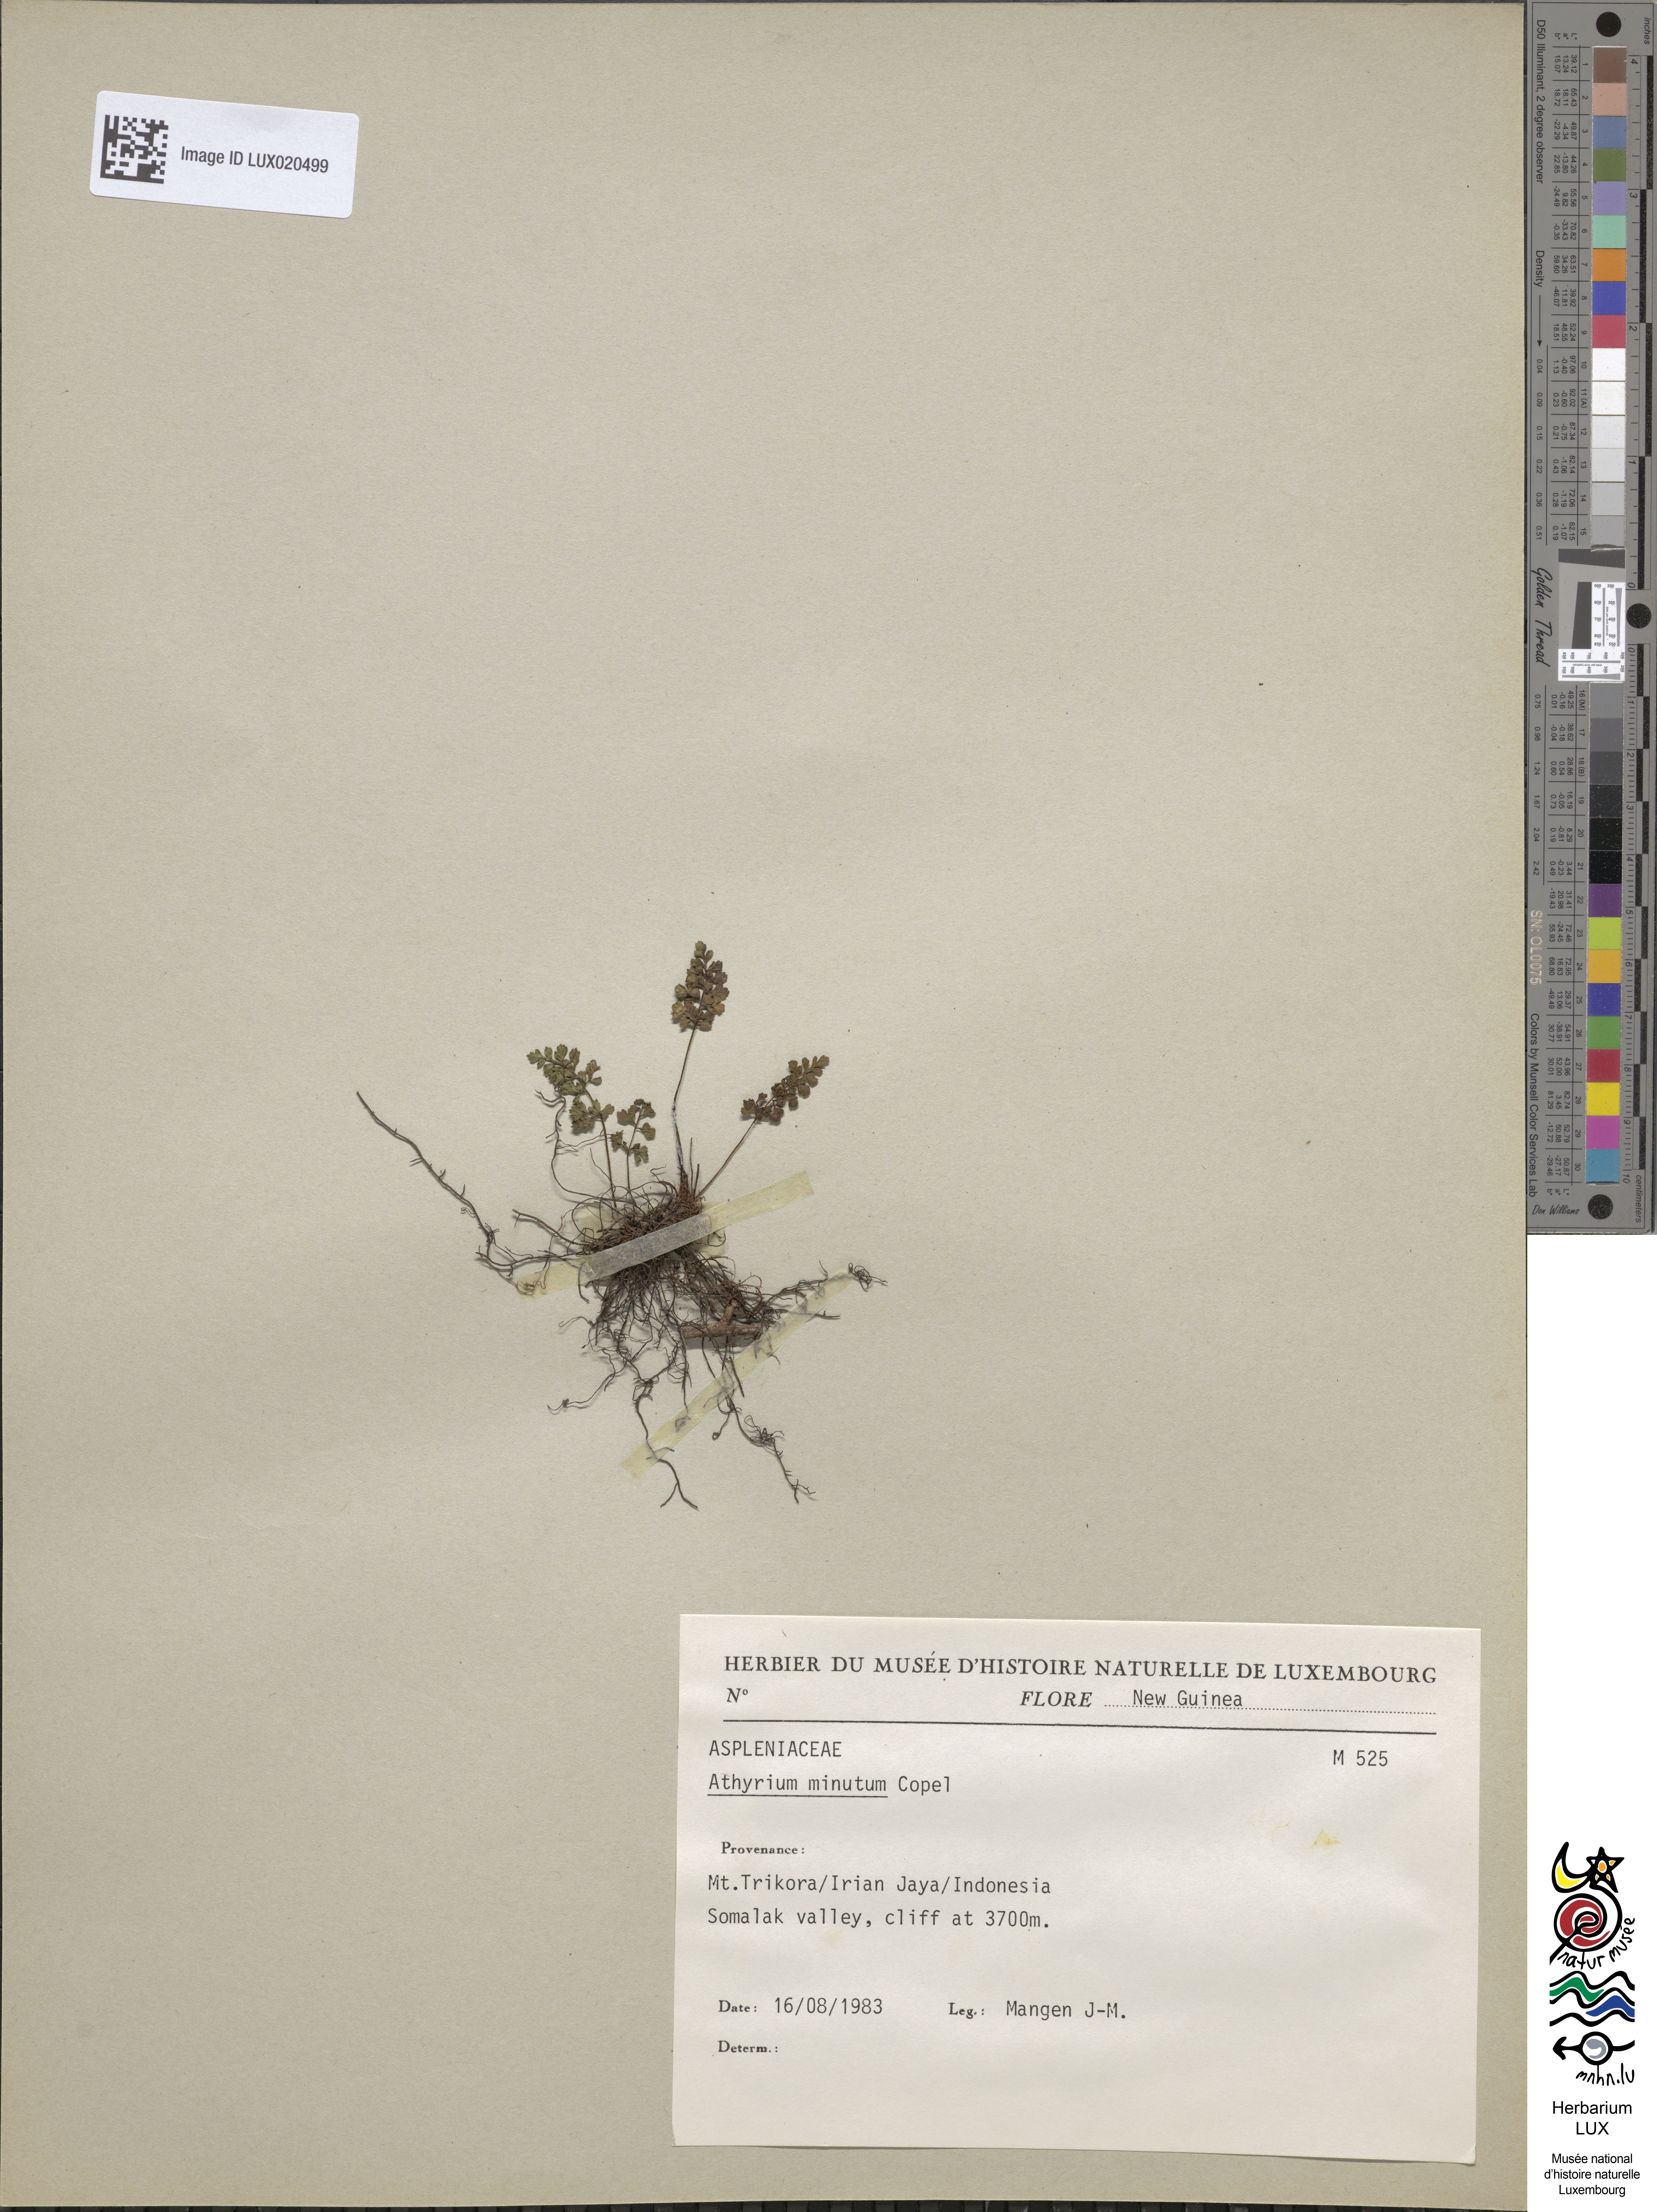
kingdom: Plantae
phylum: Tracheophyta
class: Polypodiopsida
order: Polypodiales
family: Athyriaceae
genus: Athyrium
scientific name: Athyrium minutum
